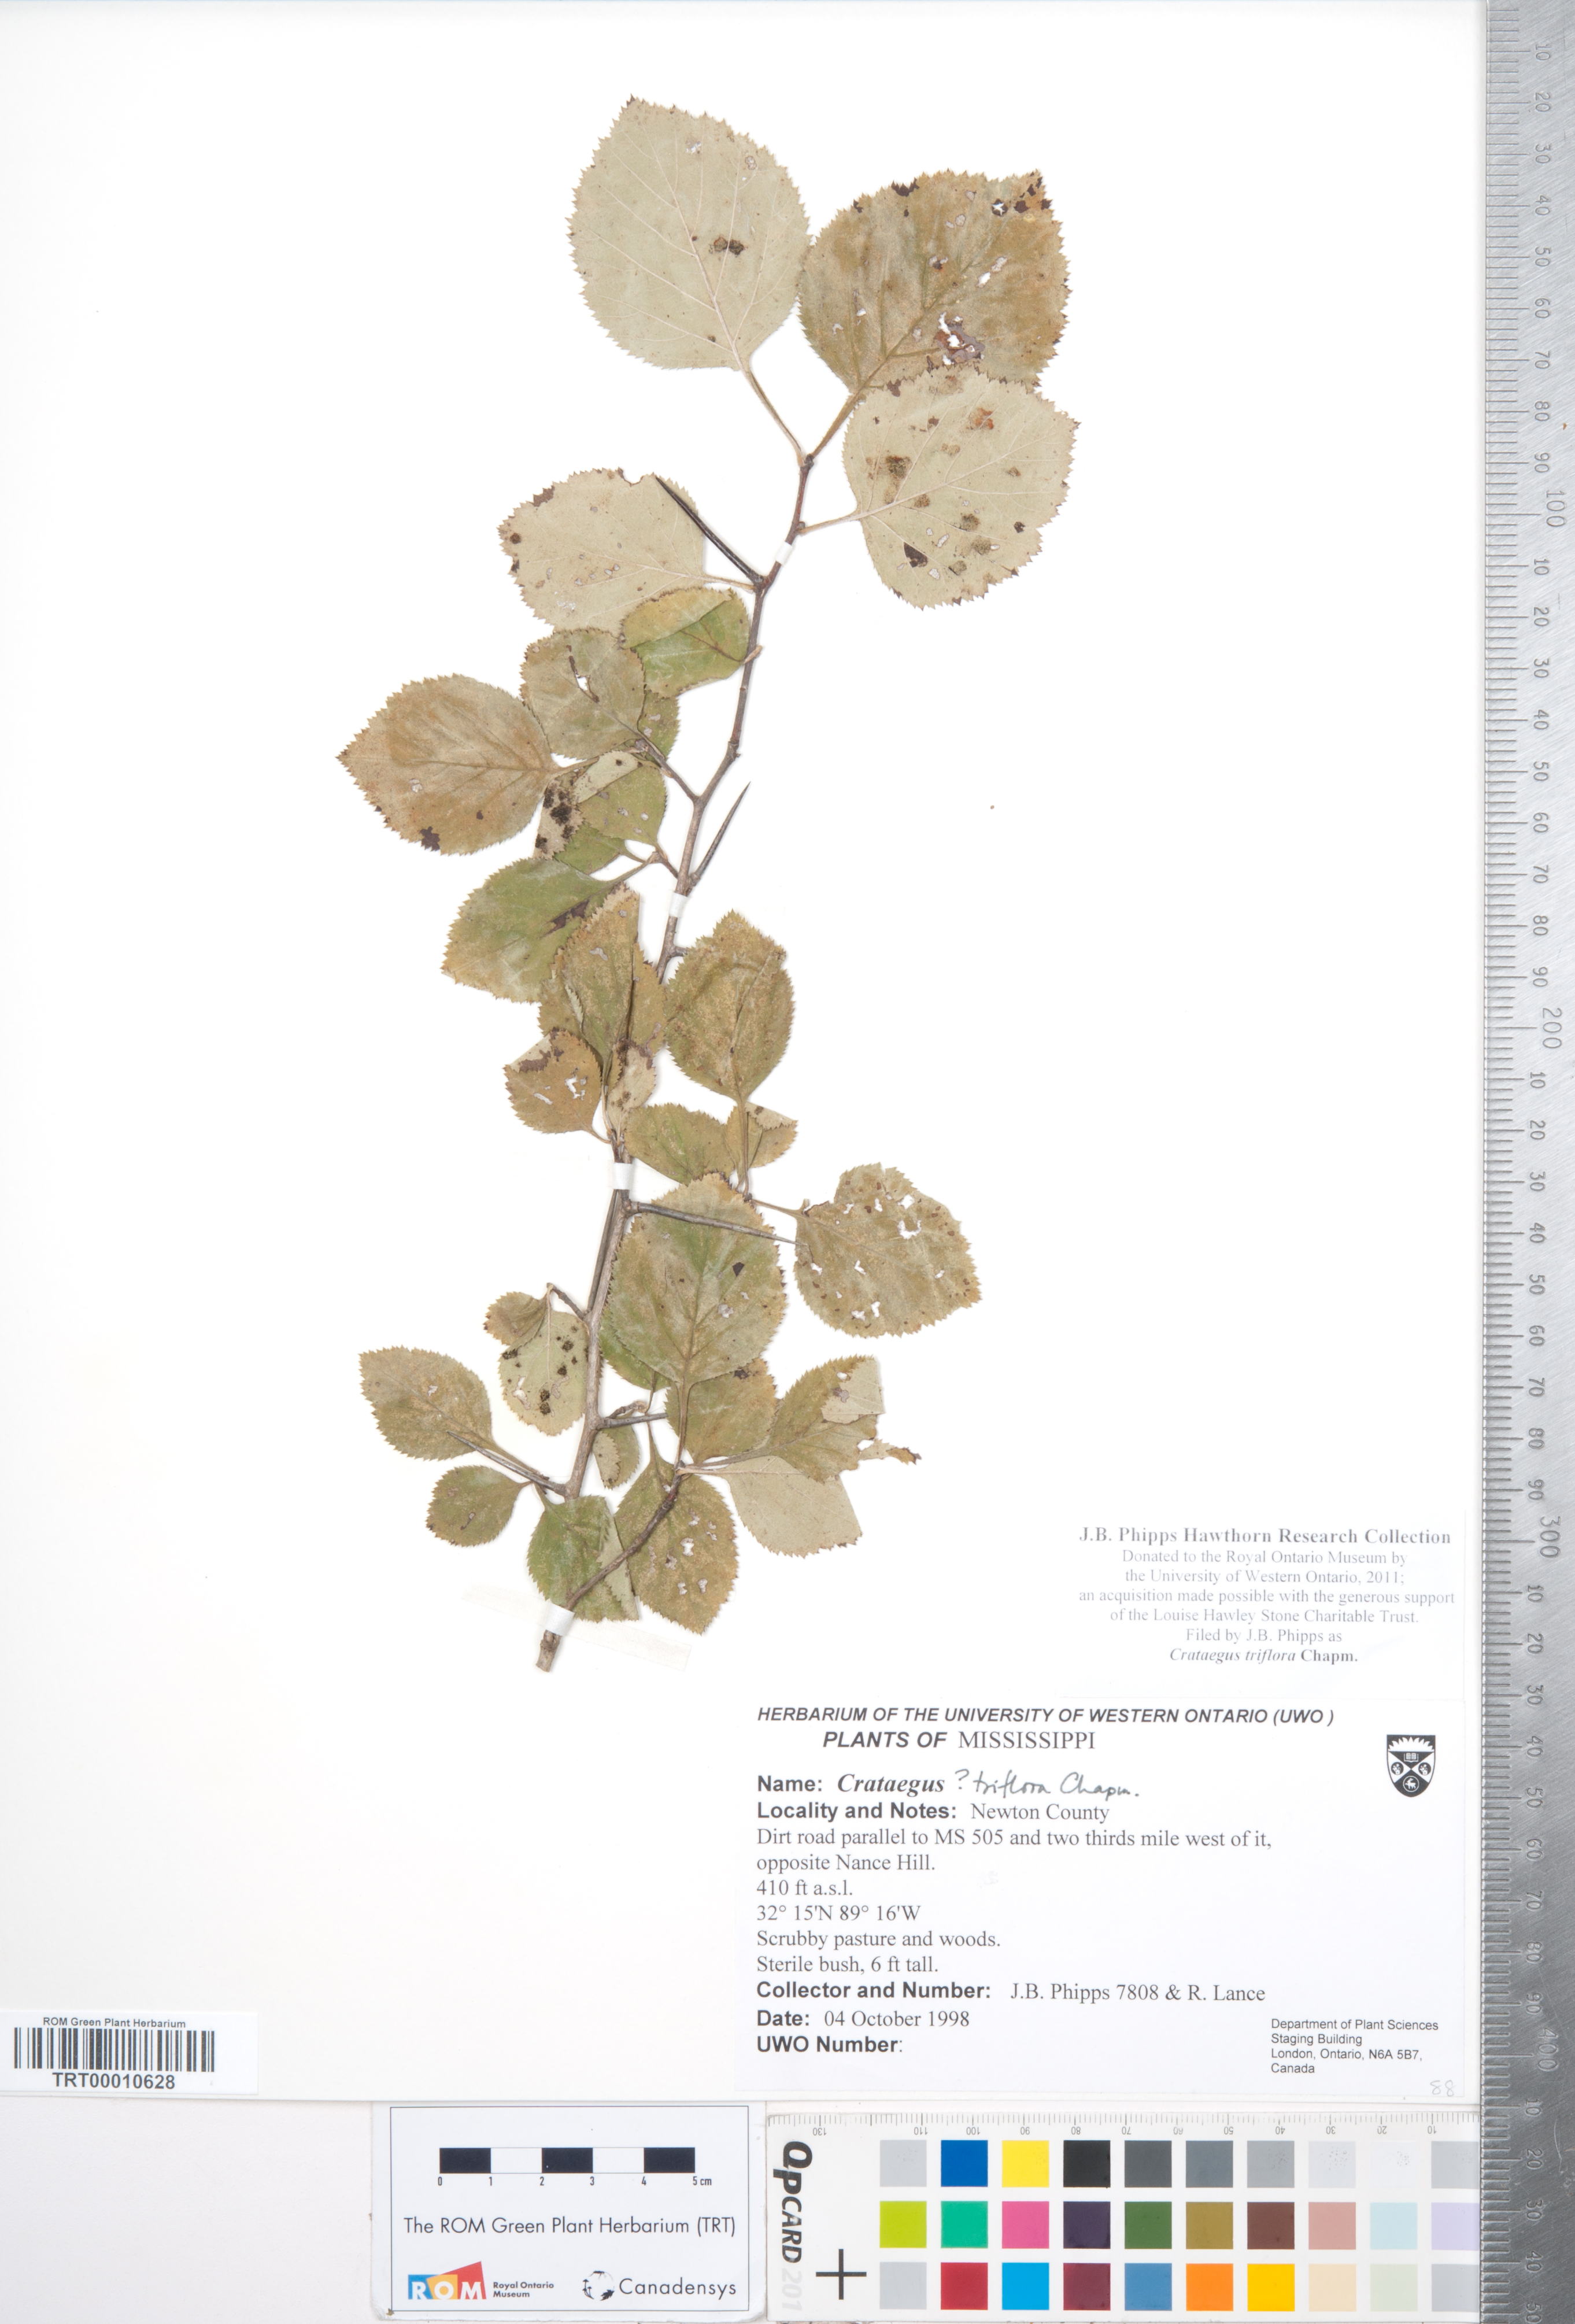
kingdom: Plantae
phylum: Tracheophyta
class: Magnoliopsida
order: Rosales
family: Rosaceae
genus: Crataegus
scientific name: Crataegus triflora
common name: Three-flower hawthorn
